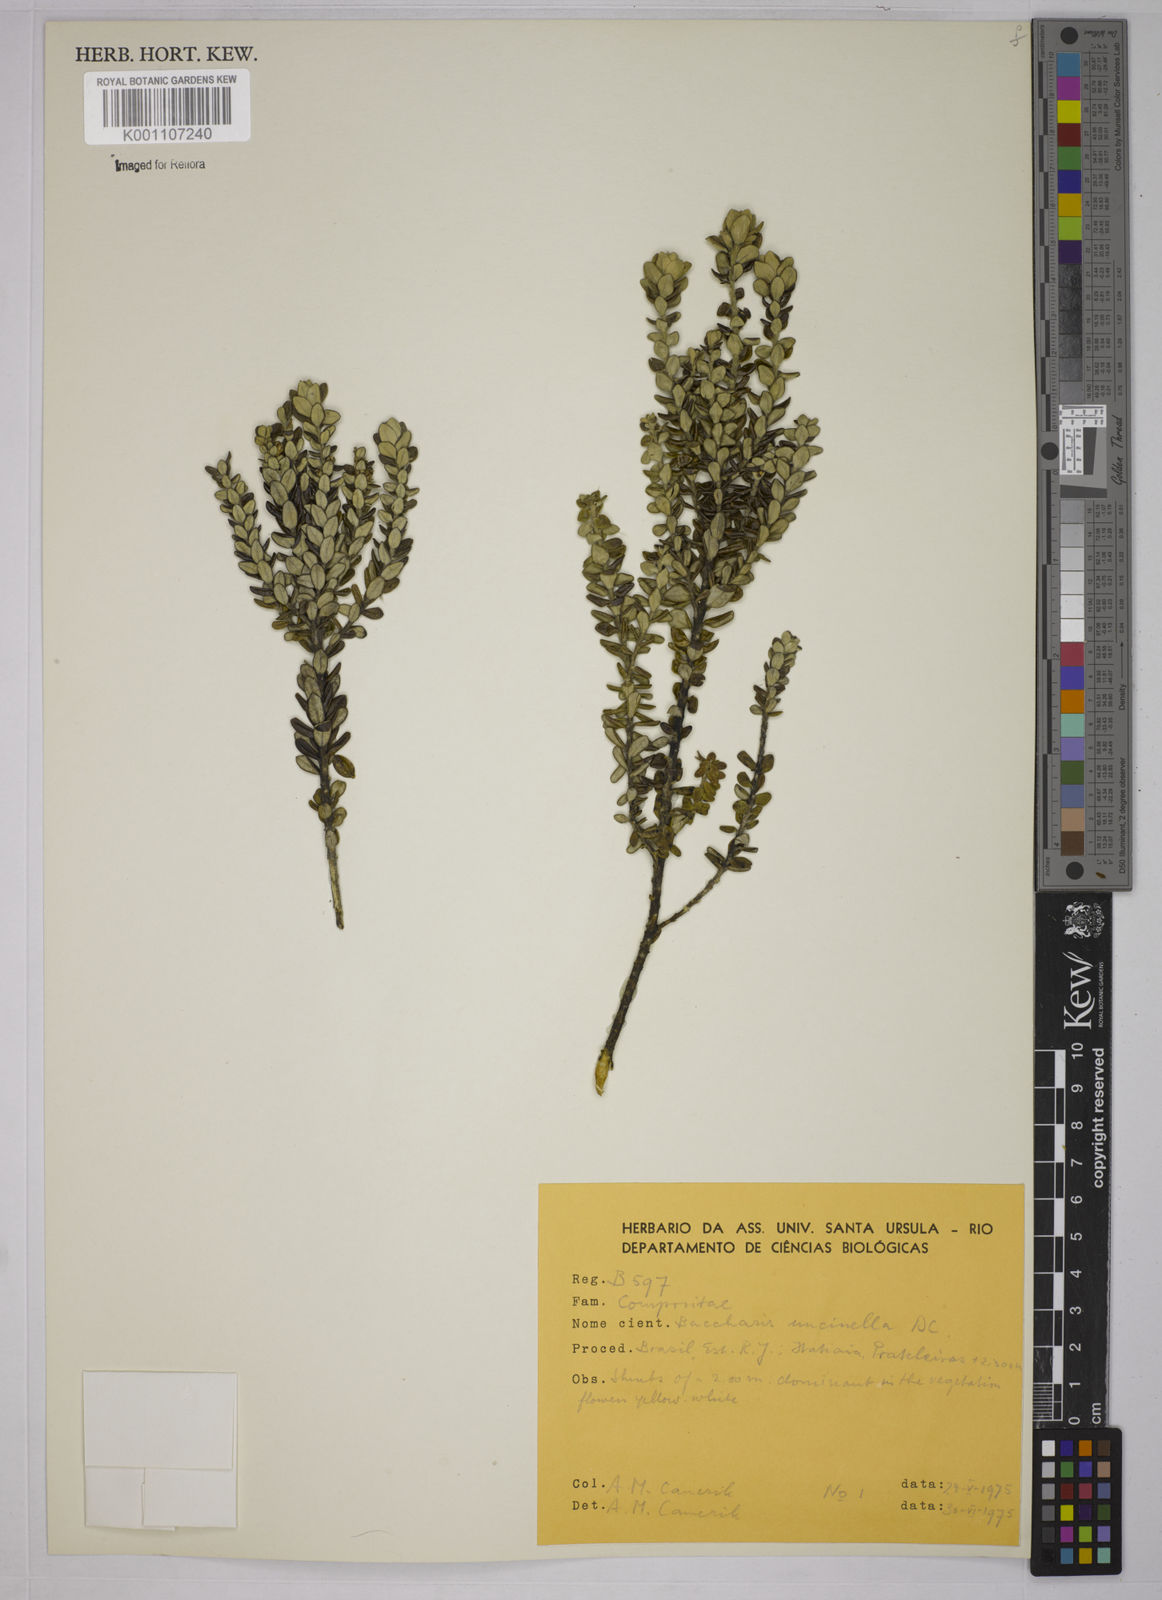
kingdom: Plantae
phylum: Tracheophyta
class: Magnoliopsida
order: Asterales
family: Asteraceae
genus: Baccharis
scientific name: Baccharis uncinella
